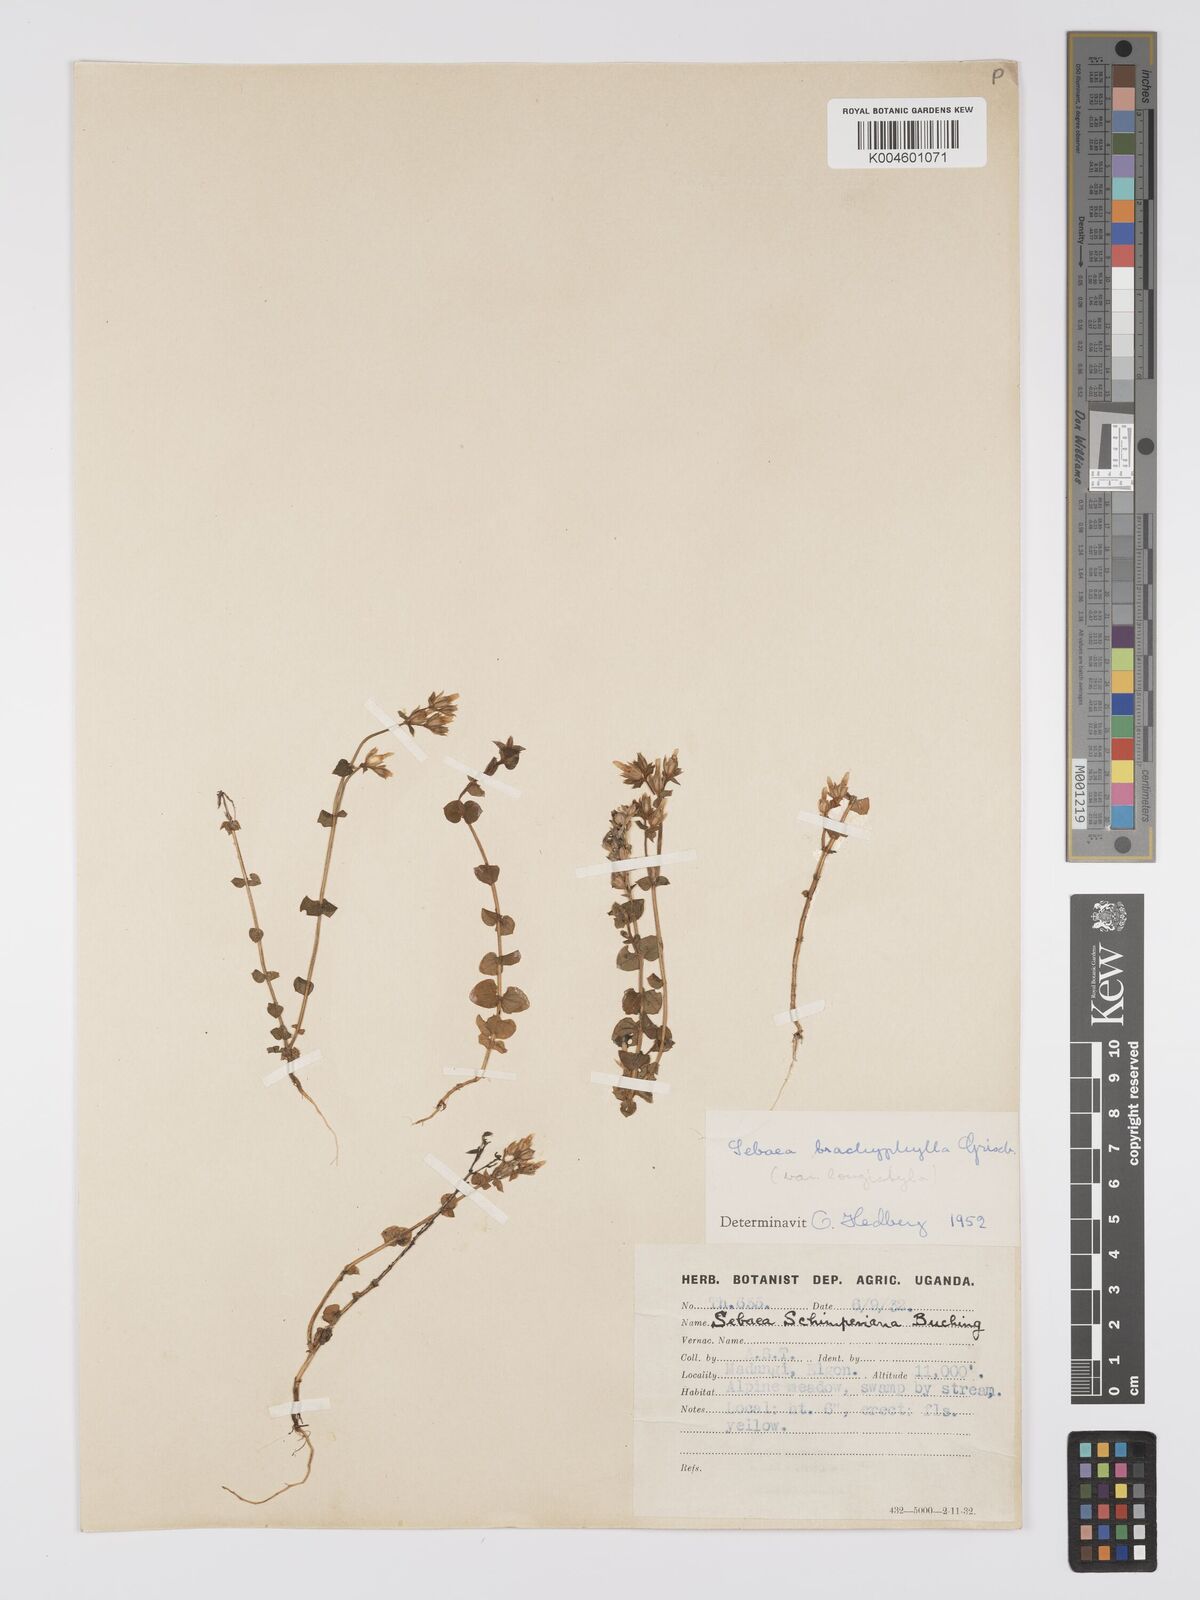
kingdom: Plantae
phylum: Tracheophyta
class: Magnoliopsida
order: Gentianales
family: Gentianaceae
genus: Sebaea
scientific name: Sebaea brachyphylla
